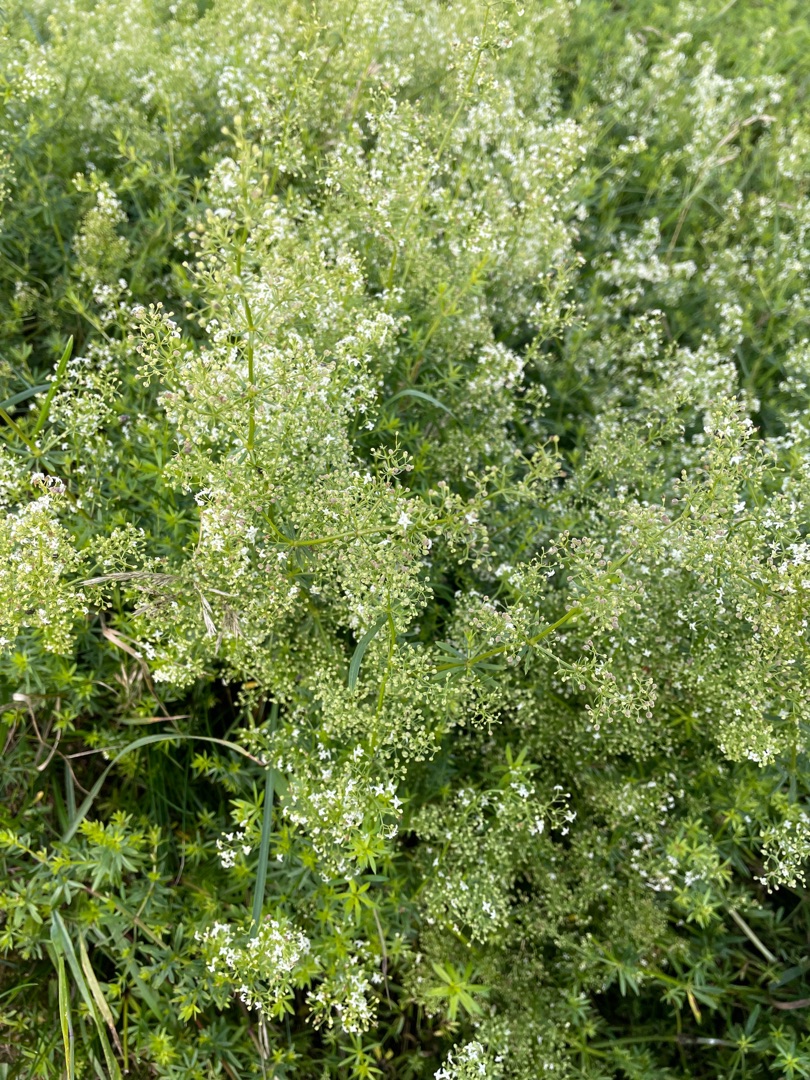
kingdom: Plantae
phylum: Tracheophyta
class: Magnoliopsida
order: Gentianales
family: Rubiaceae
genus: Galium
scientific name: Galium mollugo
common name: Hvid snerre
